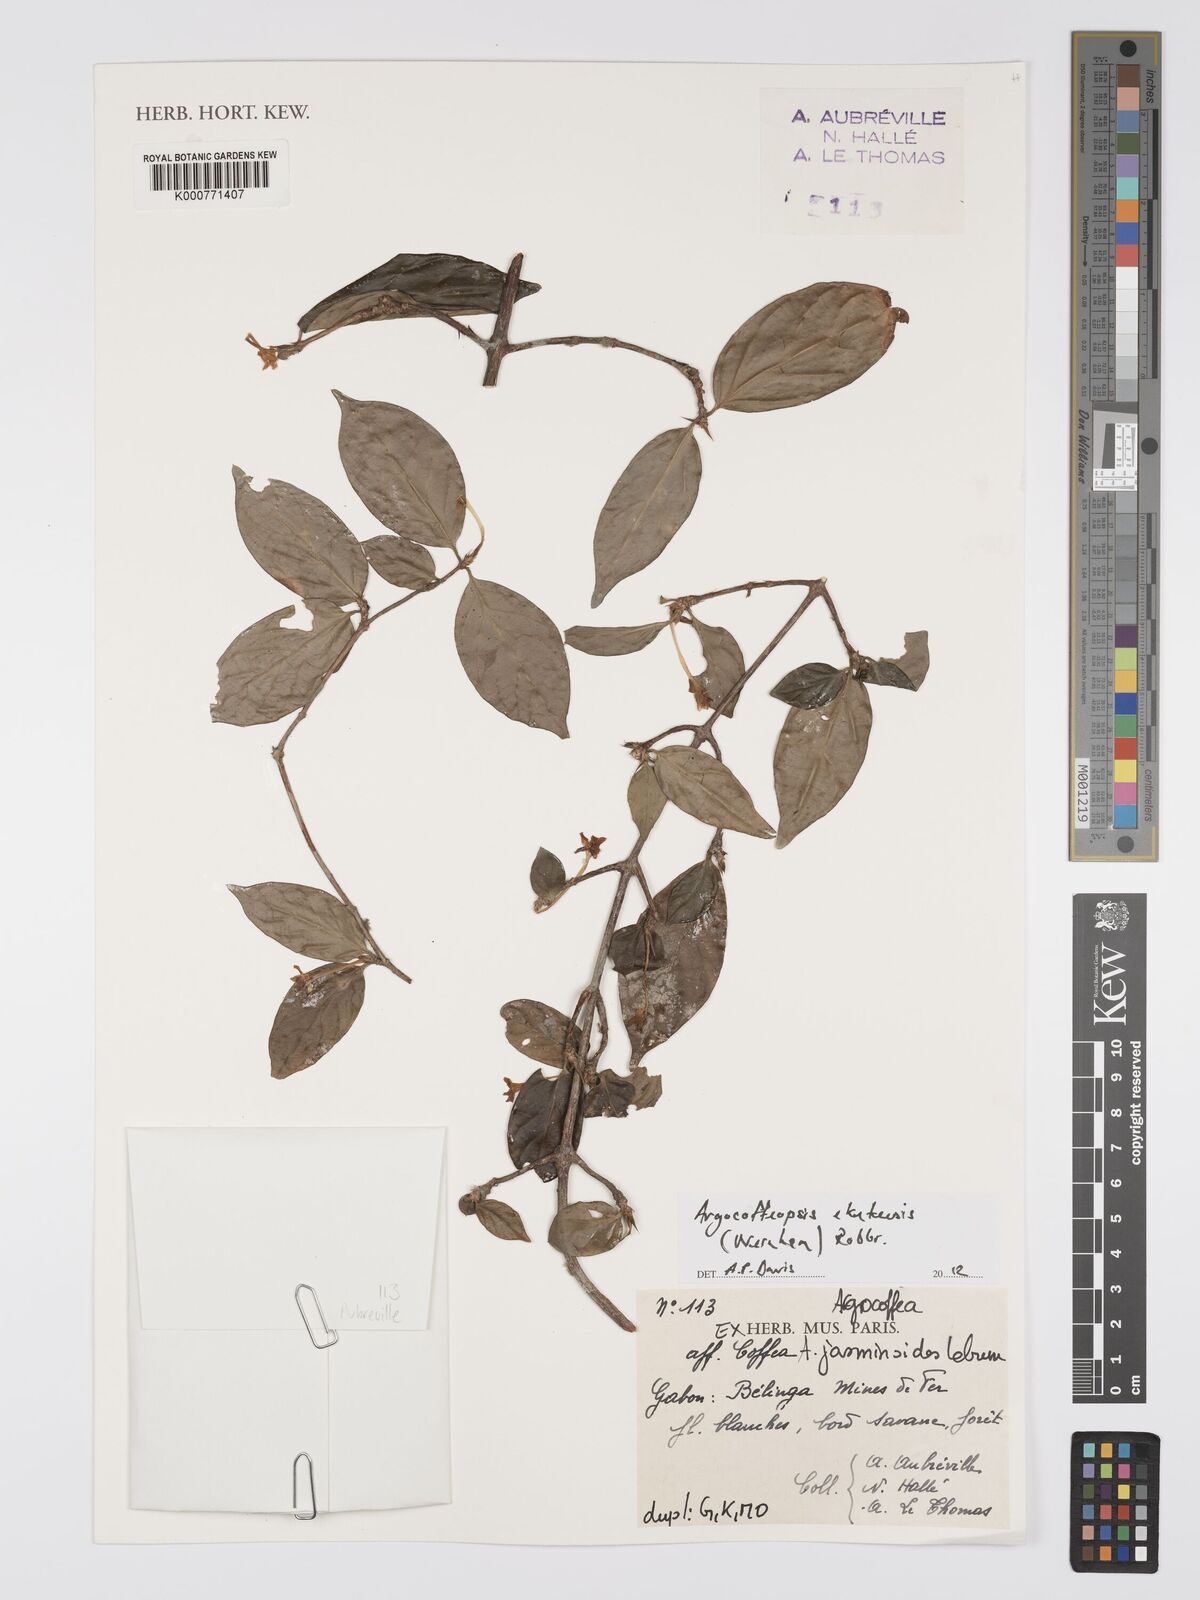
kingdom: Plantae
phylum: Tracheophyta
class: Magnoliopsida
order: Gentianales
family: Rubiaceae
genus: Argocoffeopsis
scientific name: Argocoffeopsis eketensis
